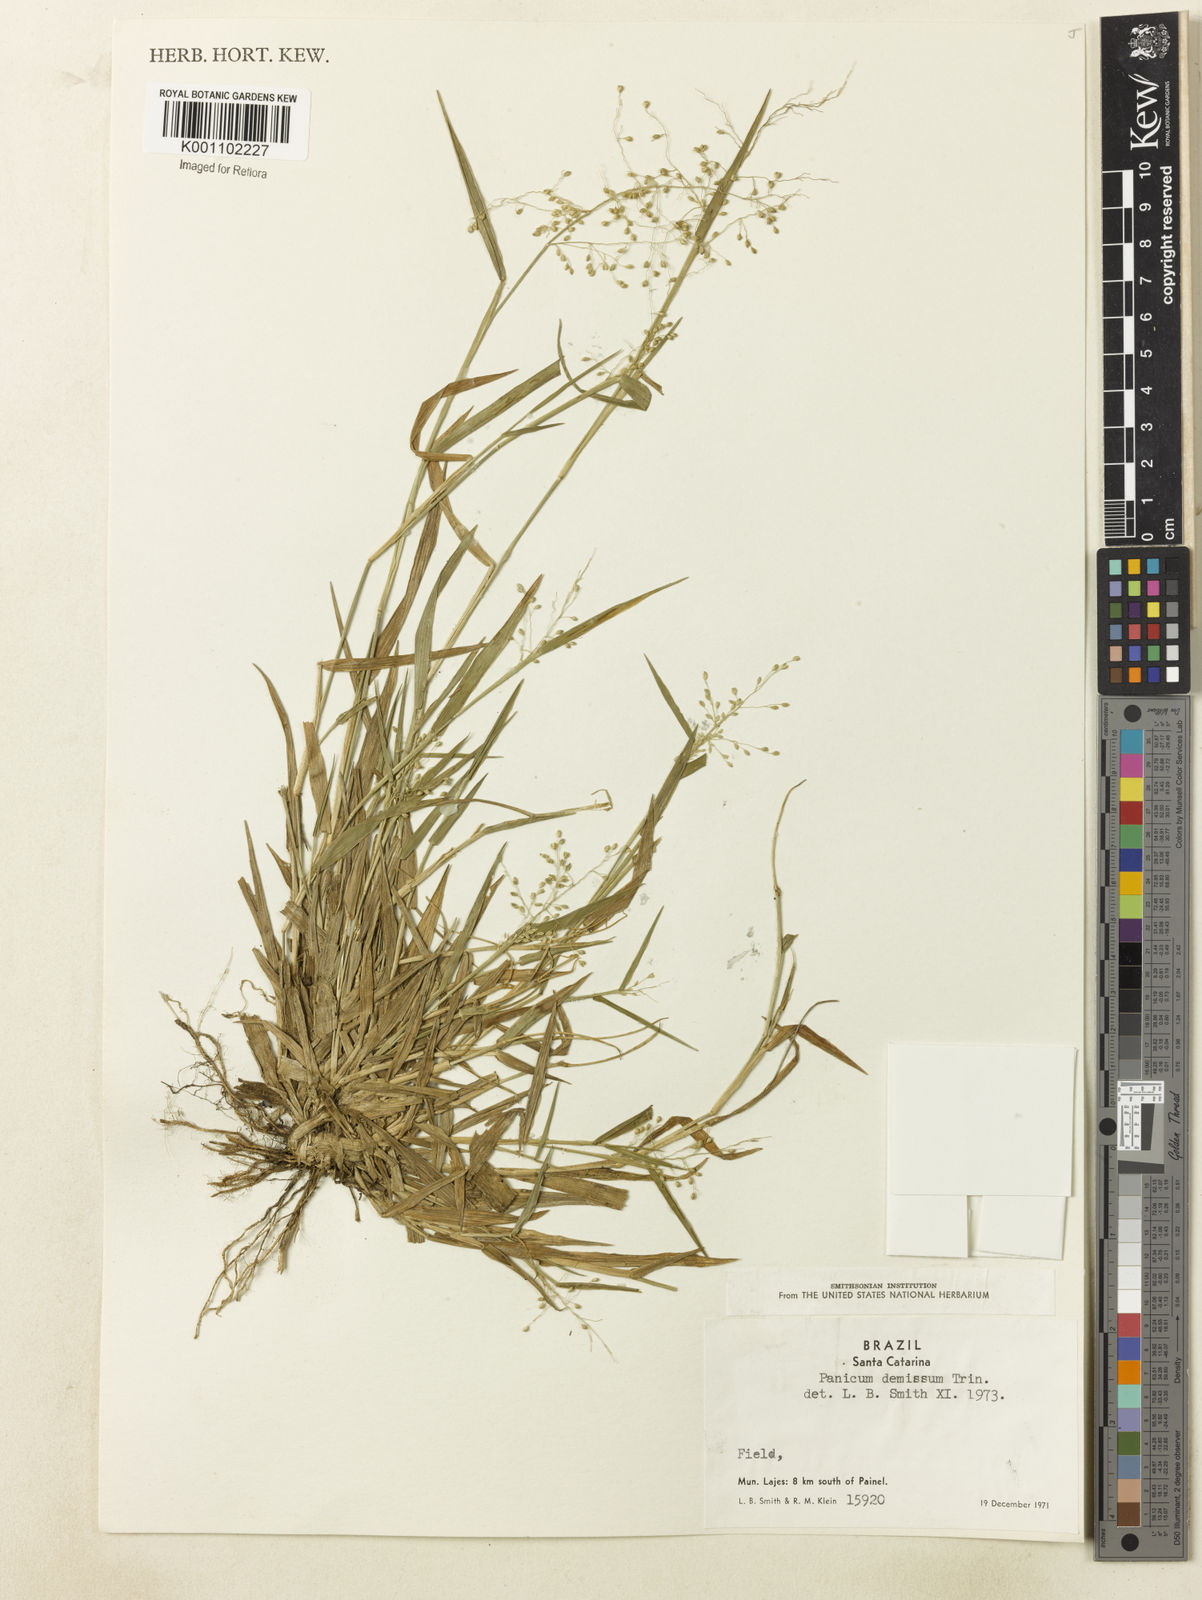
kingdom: Plantae
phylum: Tracheophyta
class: Liliopsida
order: Poales
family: Poaceae
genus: Dichanthelium
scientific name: Dichanthelium sabulorum
